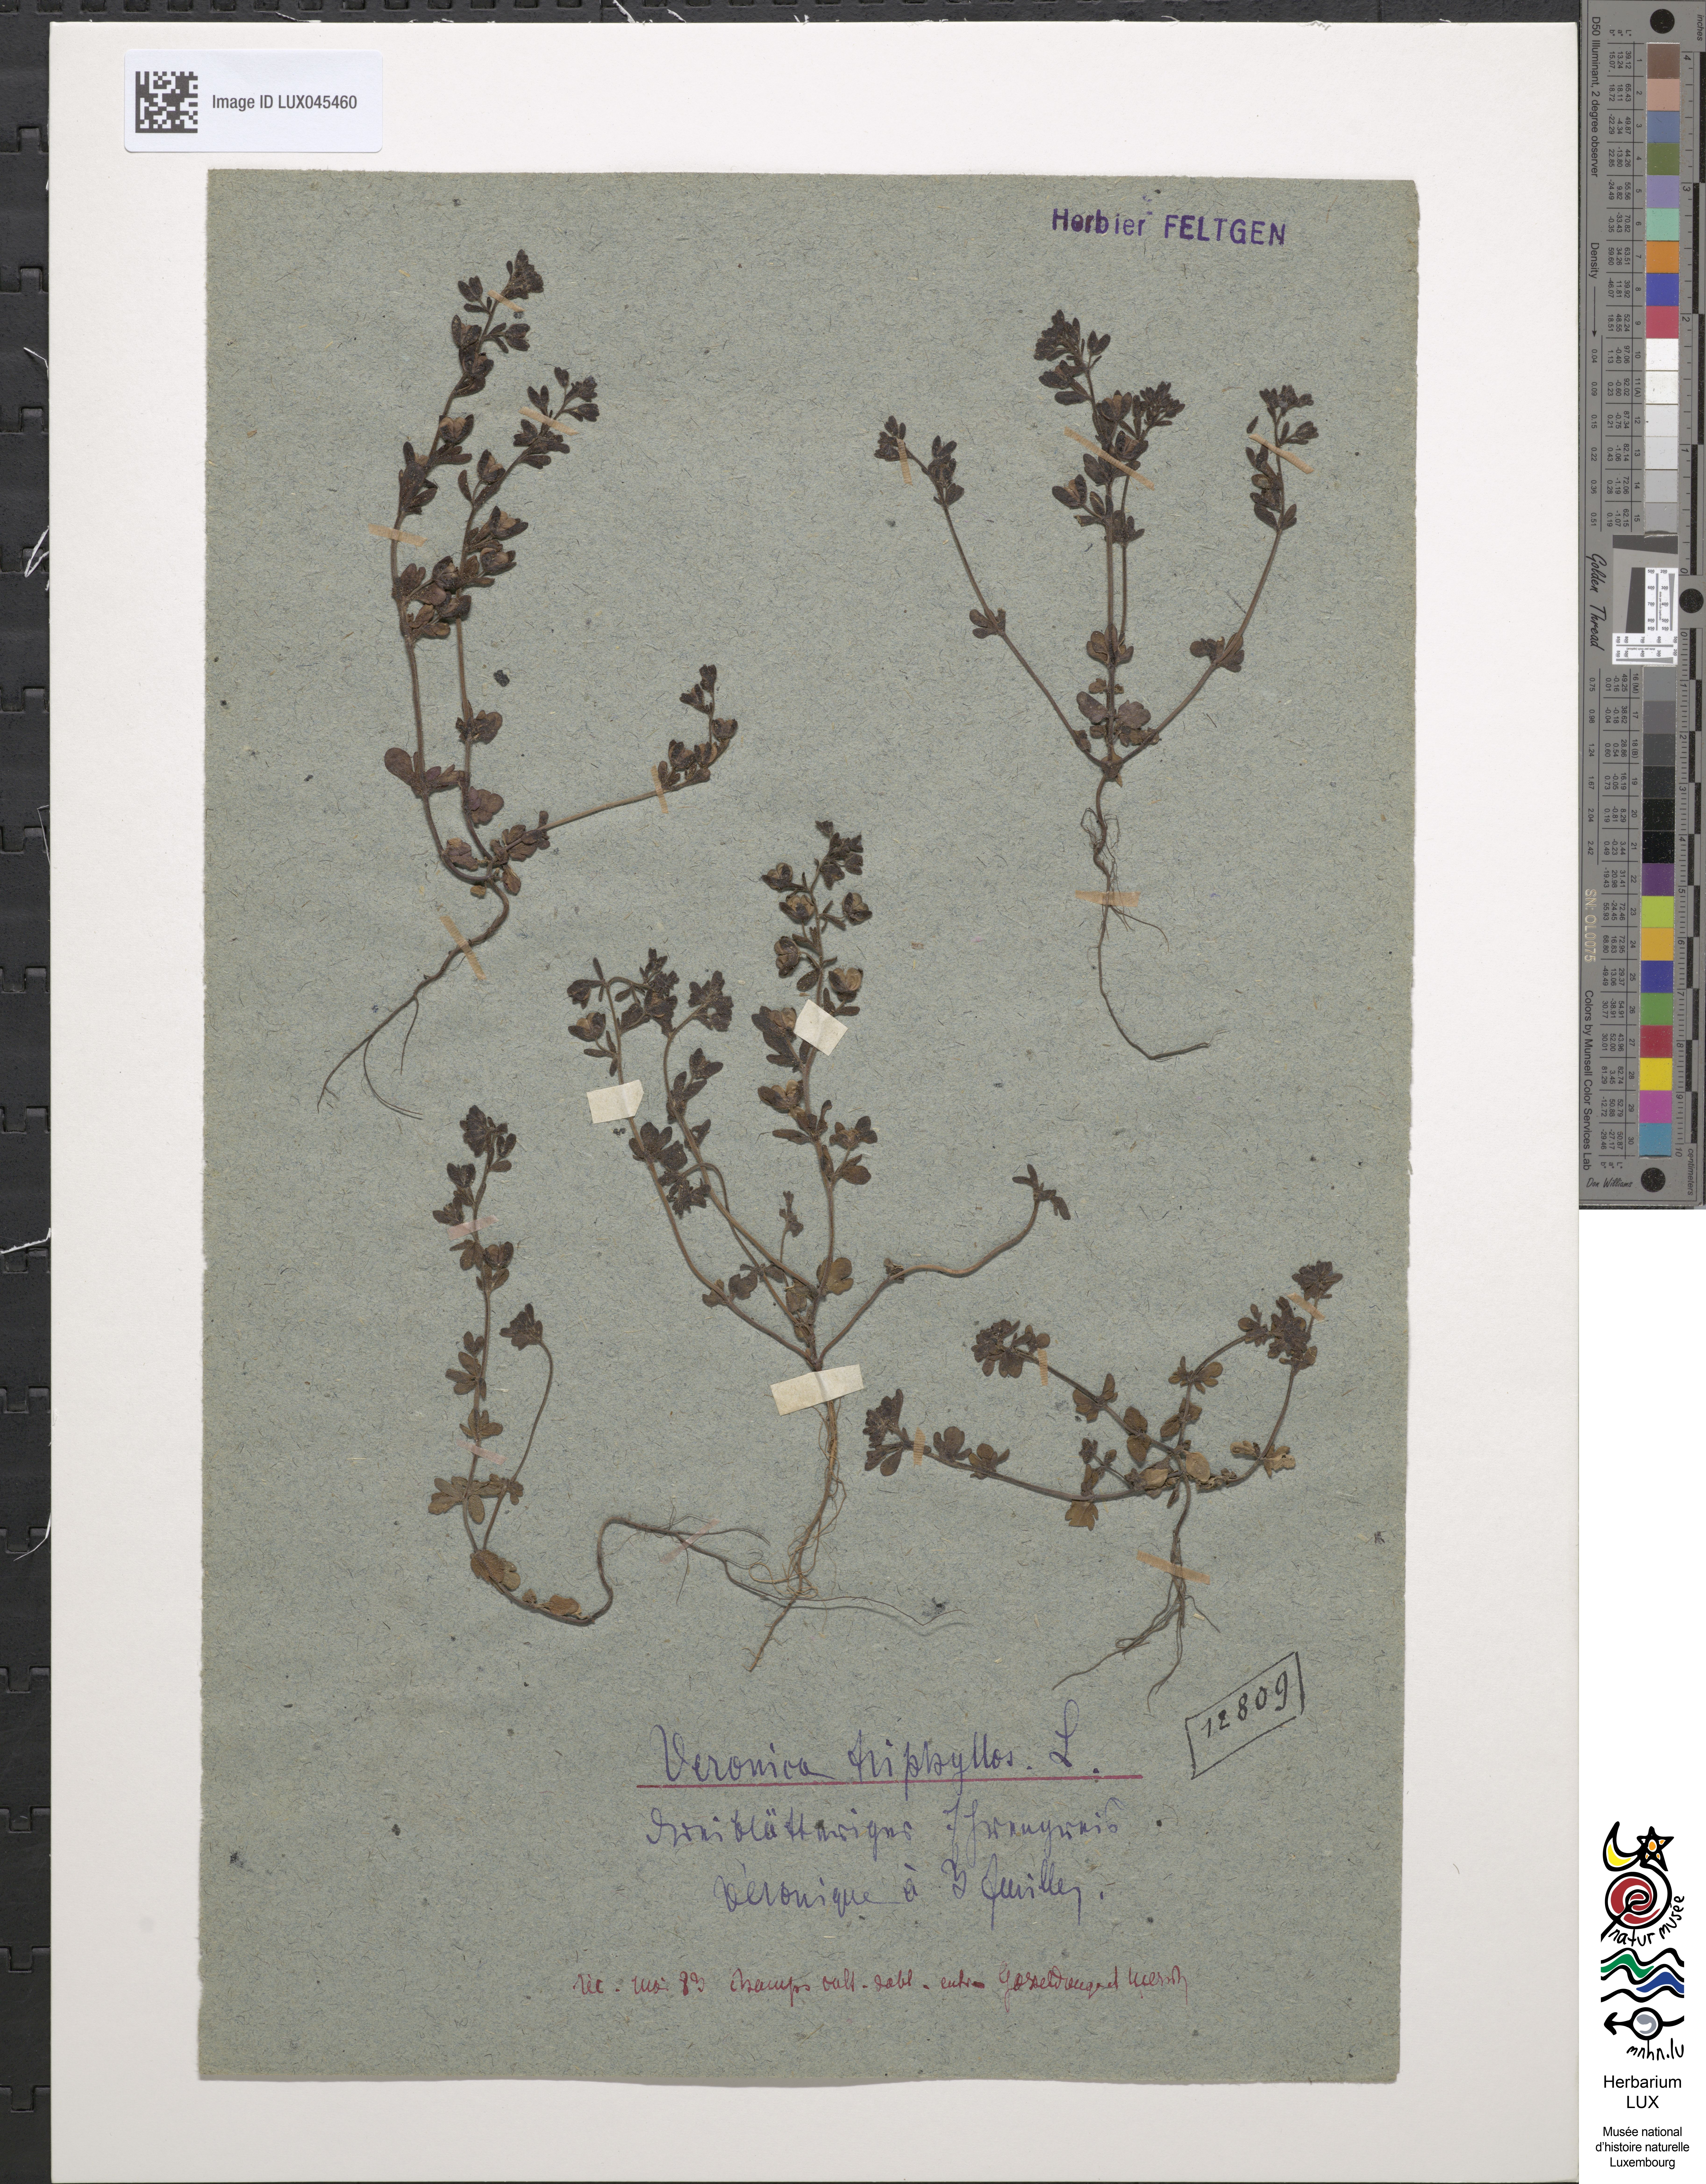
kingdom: Plantae
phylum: Tracheophyta
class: Magnoliopsida
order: Lamiales
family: Plantaginaceae
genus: Veronica
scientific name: Veronica triphyllos
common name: Fingered speedwell
